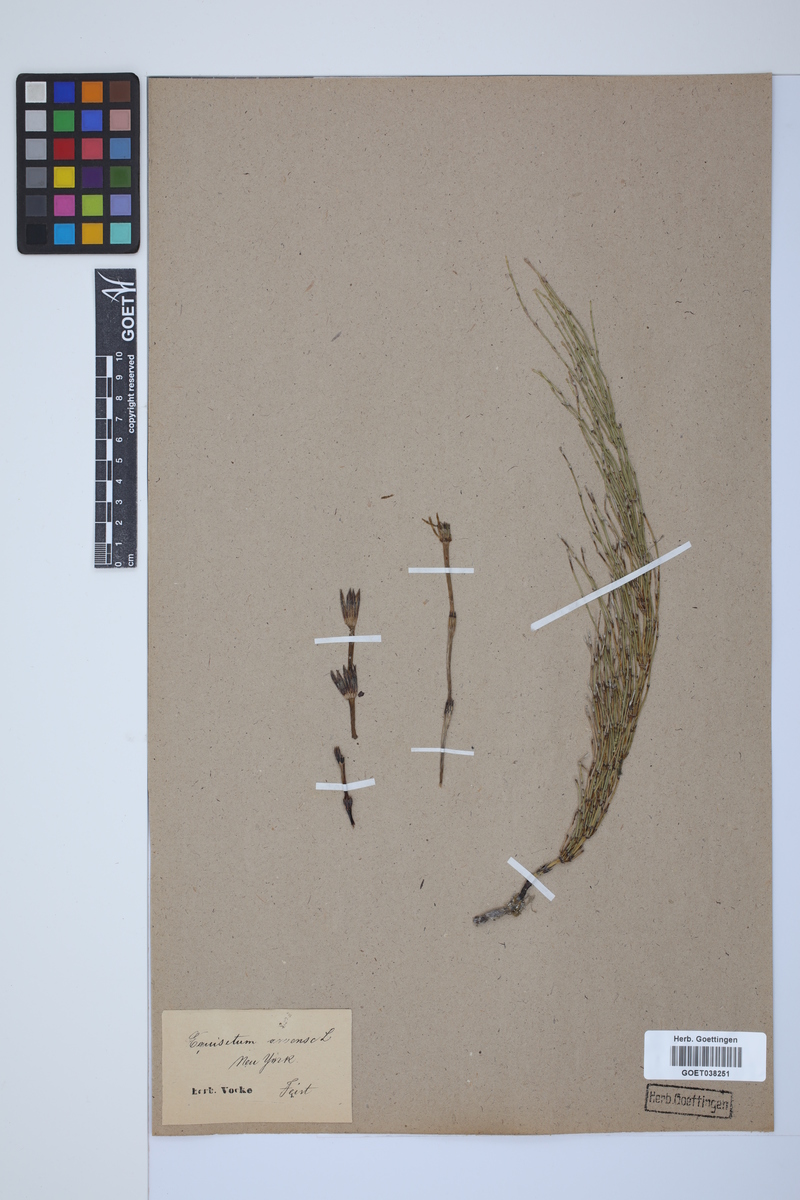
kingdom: Plantae
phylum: Tracheophyta
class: Polypodiopsida
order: Equisetales
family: Equisetaceae
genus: Equisetum
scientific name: Equisetum arvense
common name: Field horsetail
